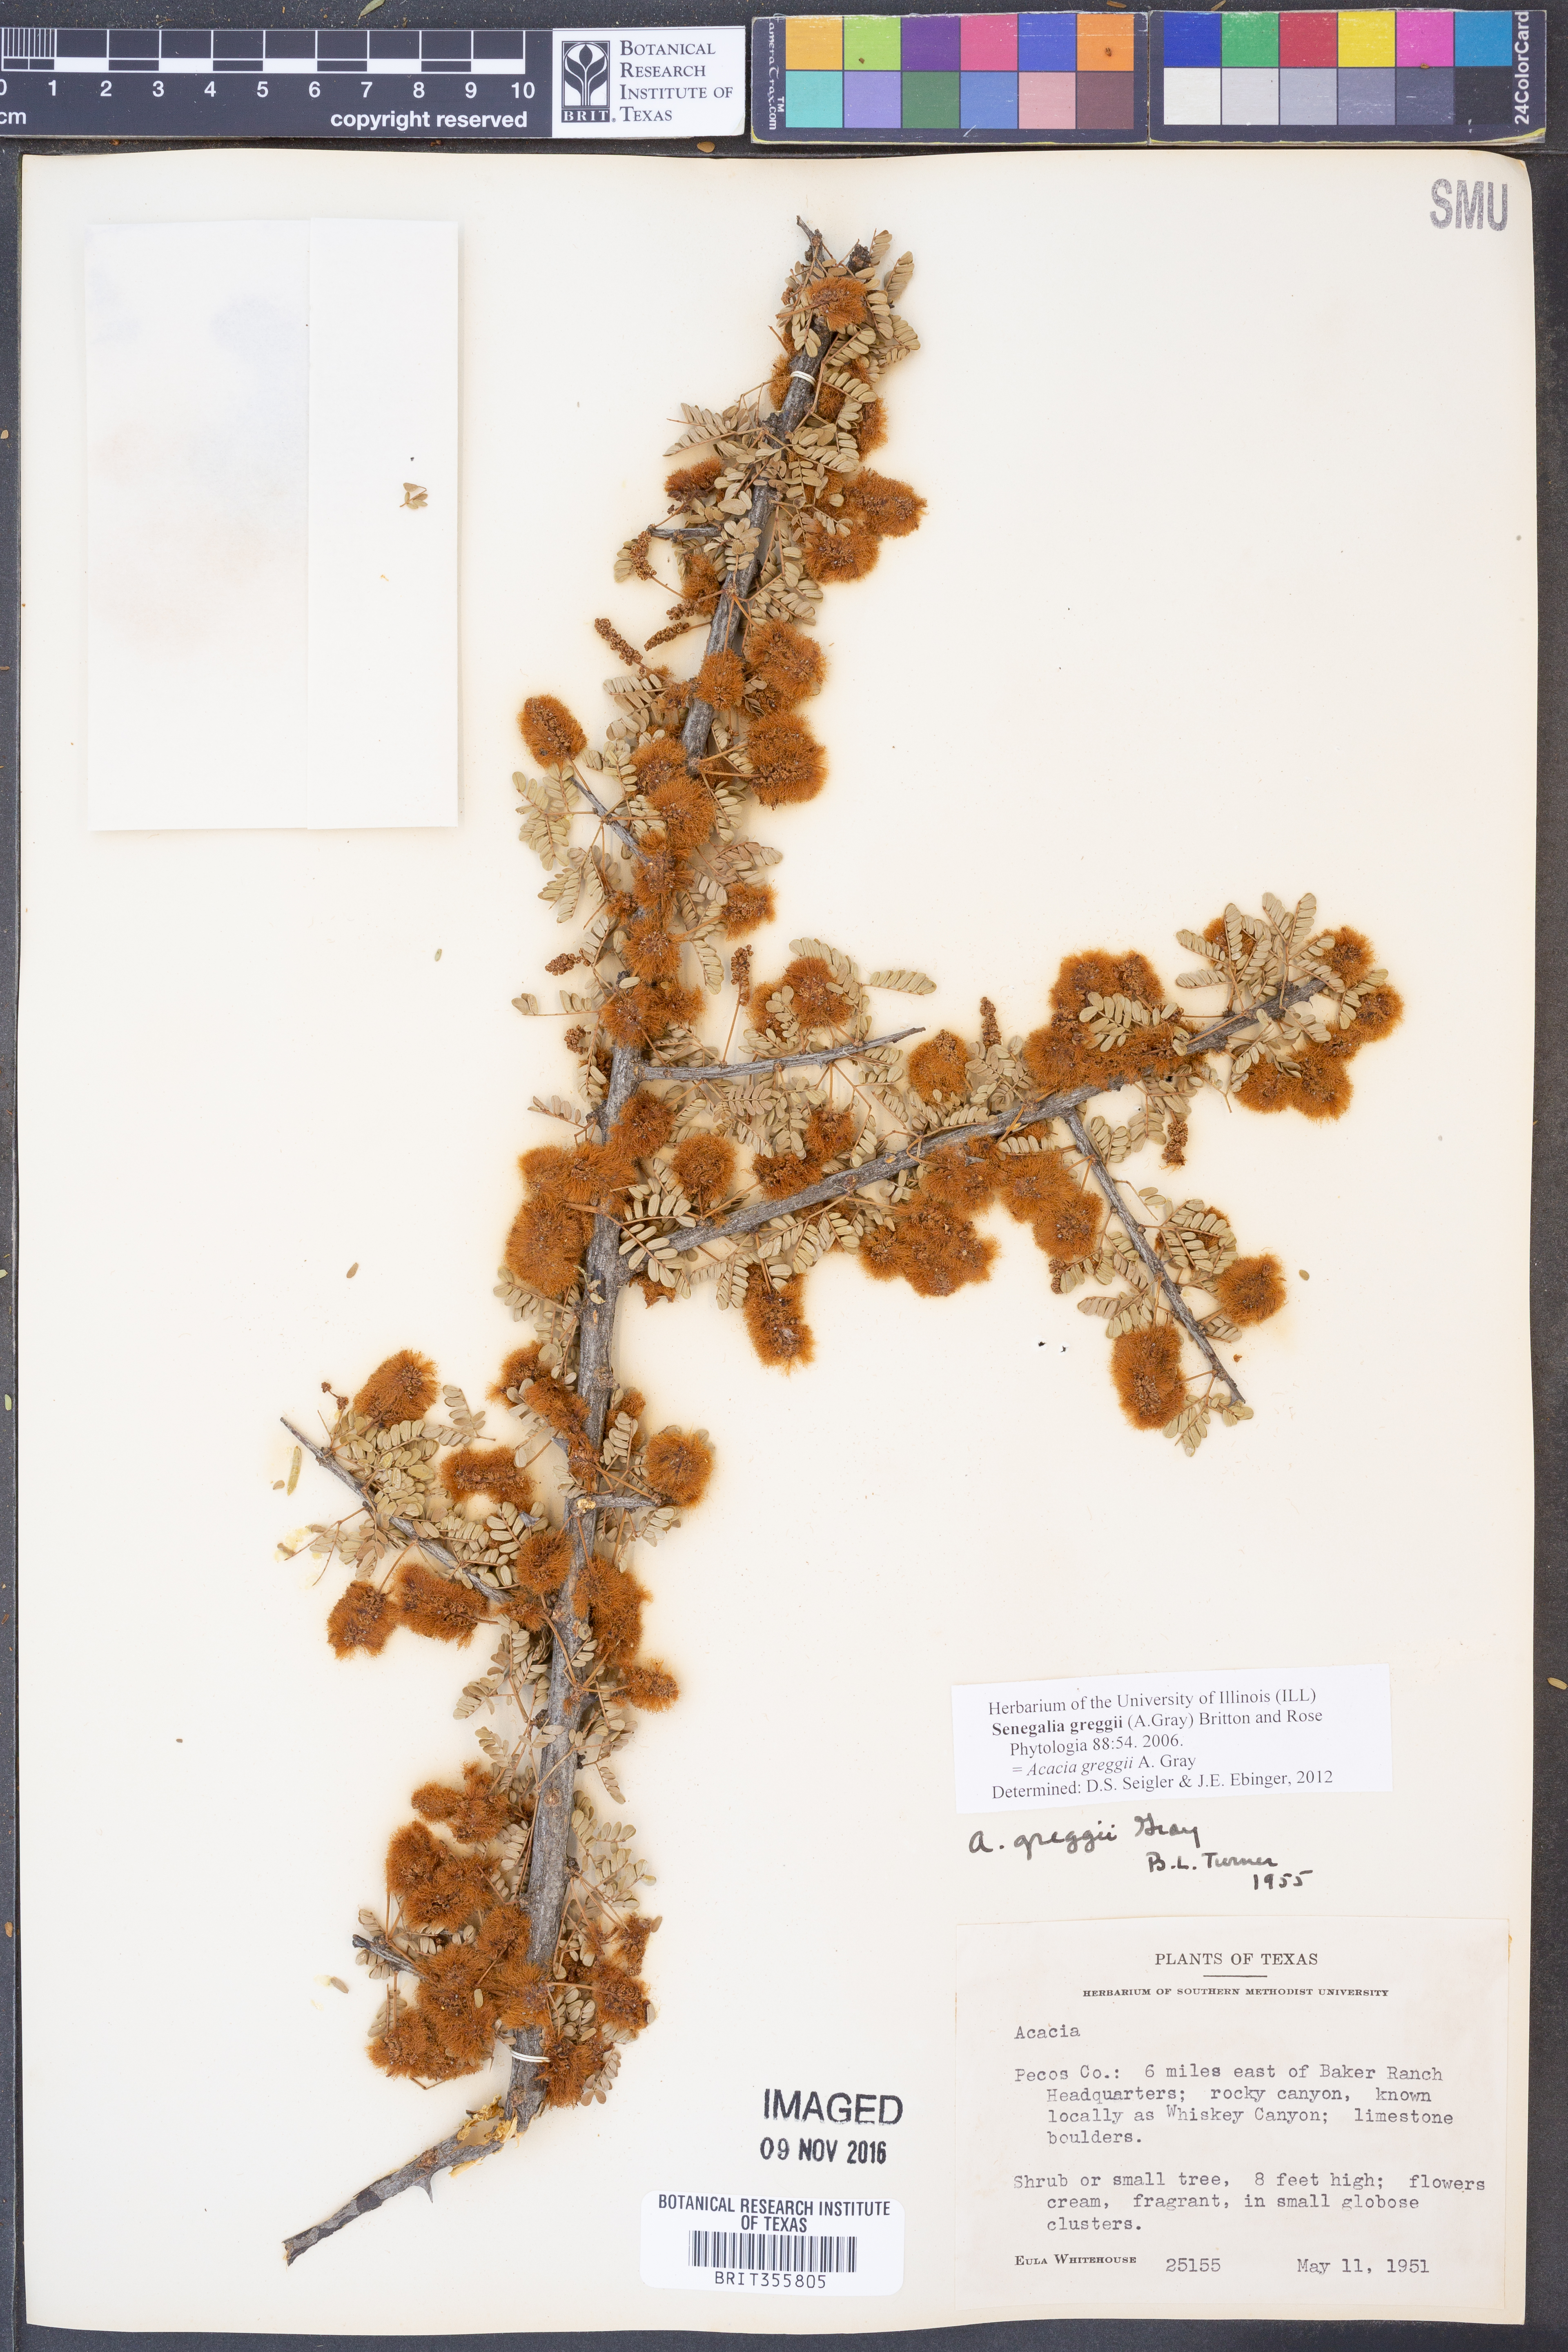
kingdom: Plantae
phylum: Tracheophyta
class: Magnoliopsida
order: Fabales
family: Fabaceae
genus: Senegalia
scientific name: Senegalia greggii
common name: Texas-mimosa
